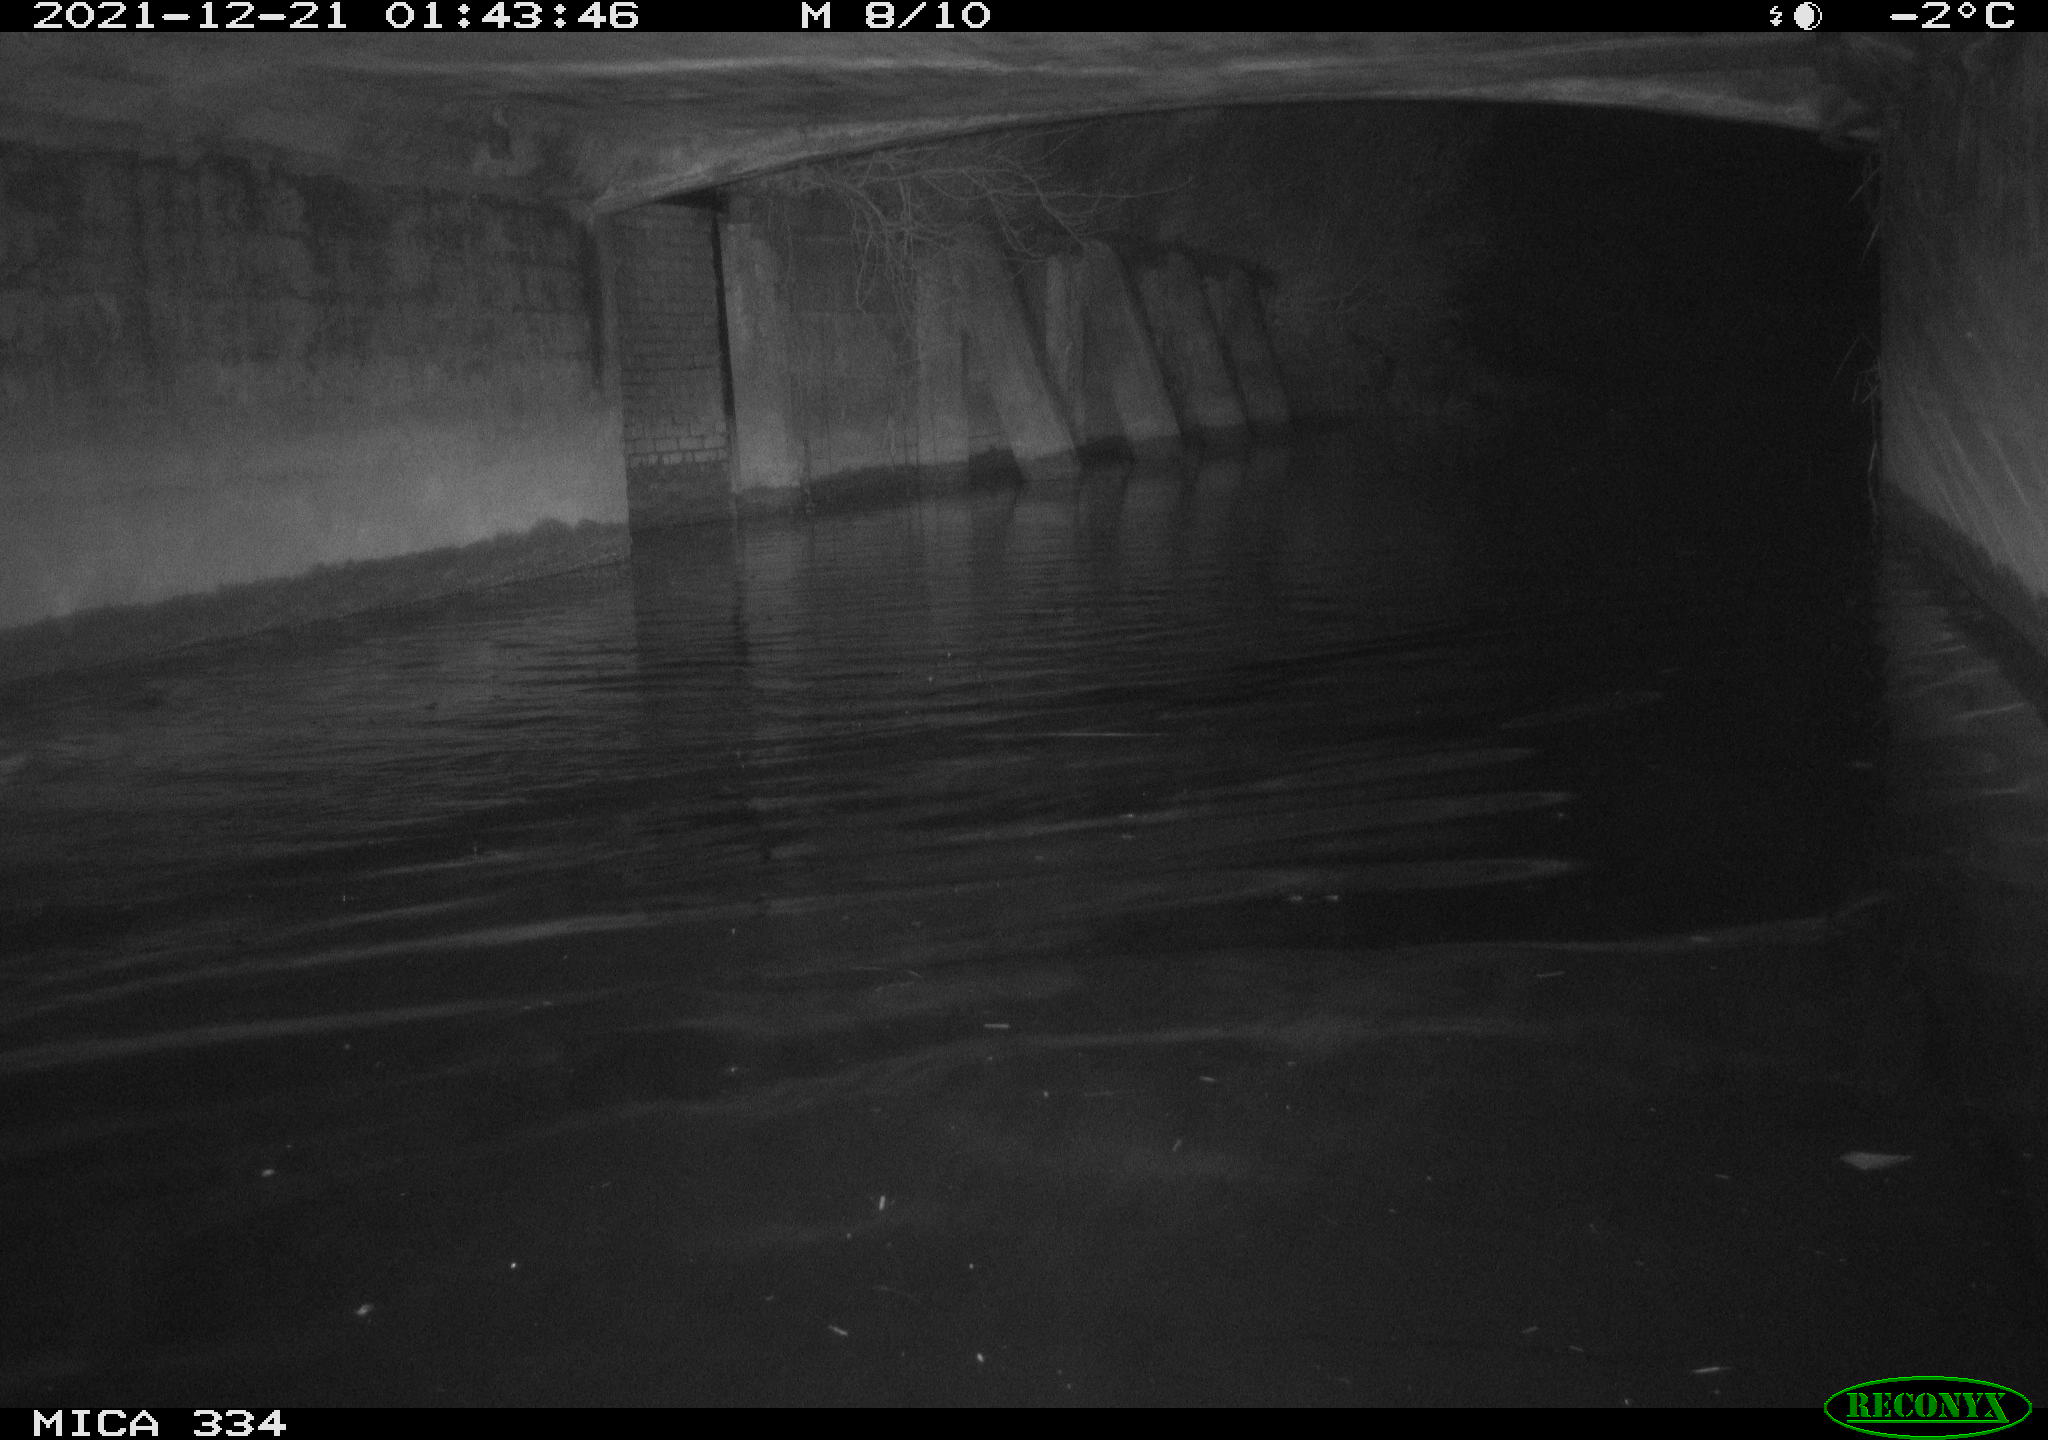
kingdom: Animalia
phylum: Chordata
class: Aves
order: Anseriformes
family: Anatidae
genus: Anas
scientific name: Anas platyrhynchos
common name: Mallard
